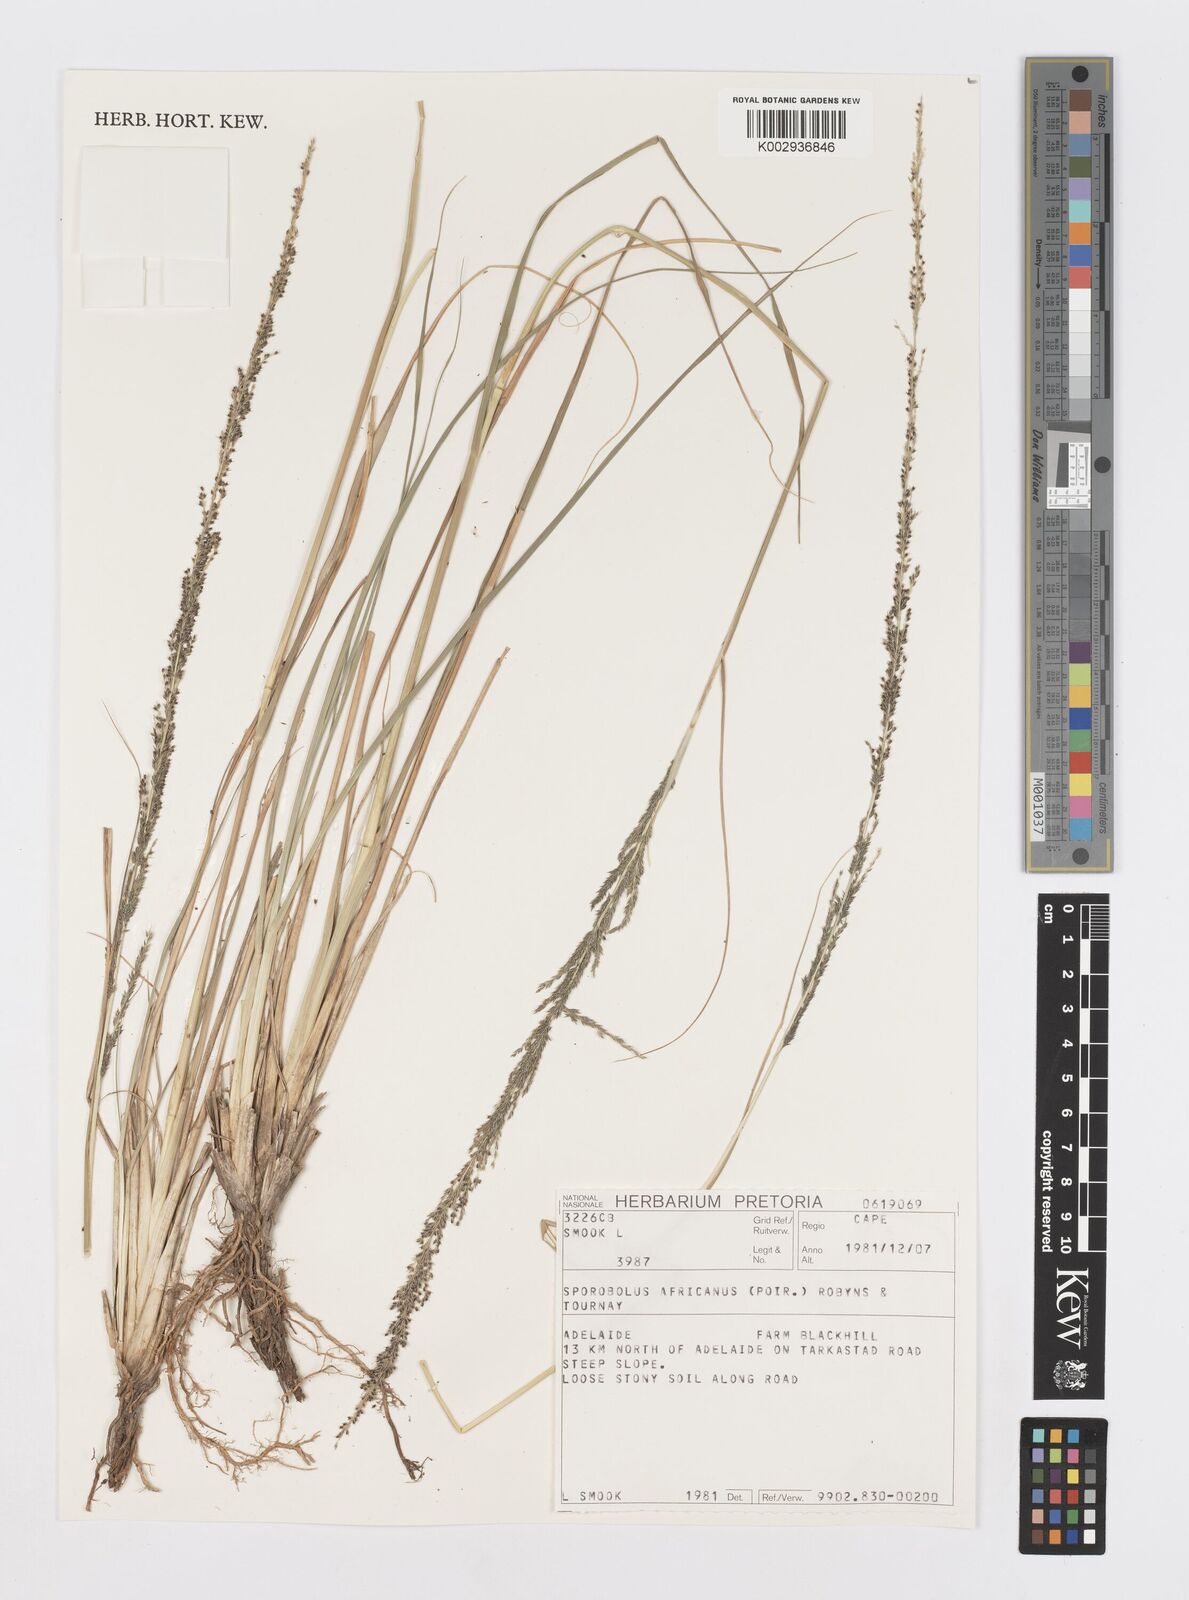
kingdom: Plantae
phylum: Tracheophyta
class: Liliopsida
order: Poales
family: Poaceae
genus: Sporobolus
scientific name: Sporobolus africanus
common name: African dropseed
